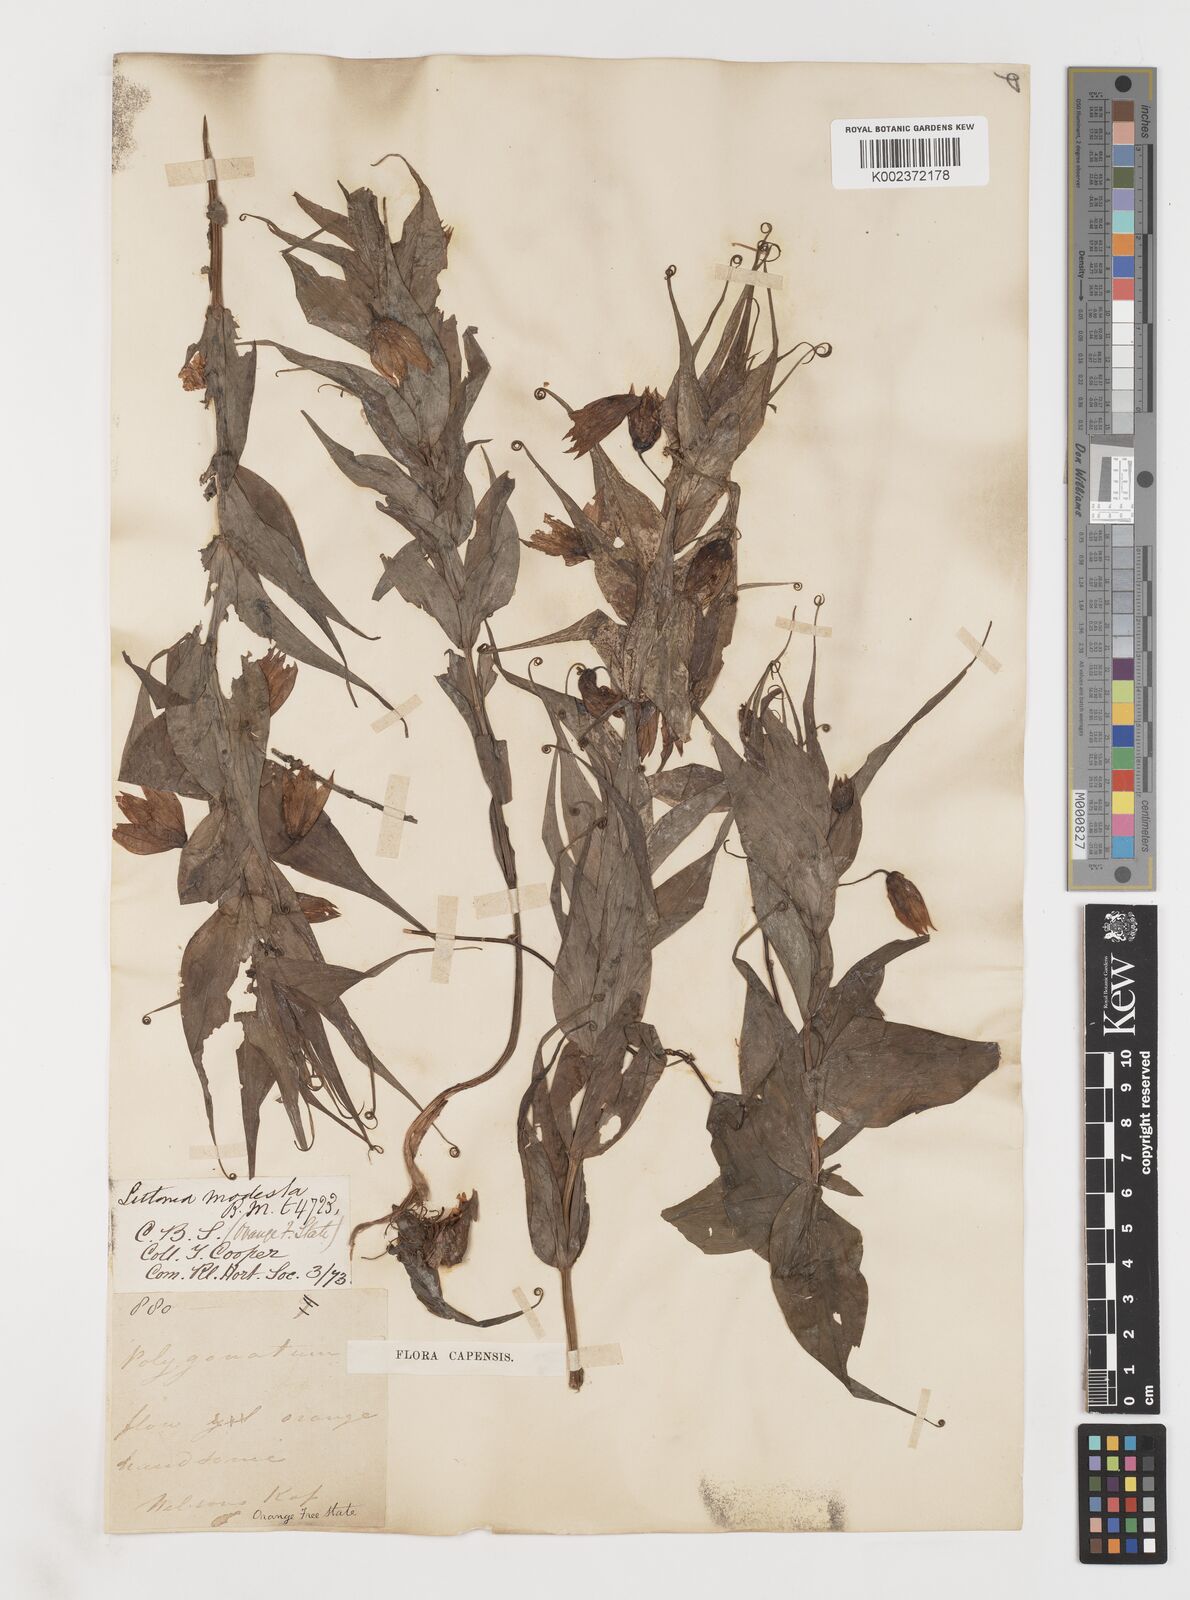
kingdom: Plantae
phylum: Tracheophyta
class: Liliopsida
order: Liliales
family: Colchicaceae
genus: Gloriosa
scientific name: Gloriosa modesta
